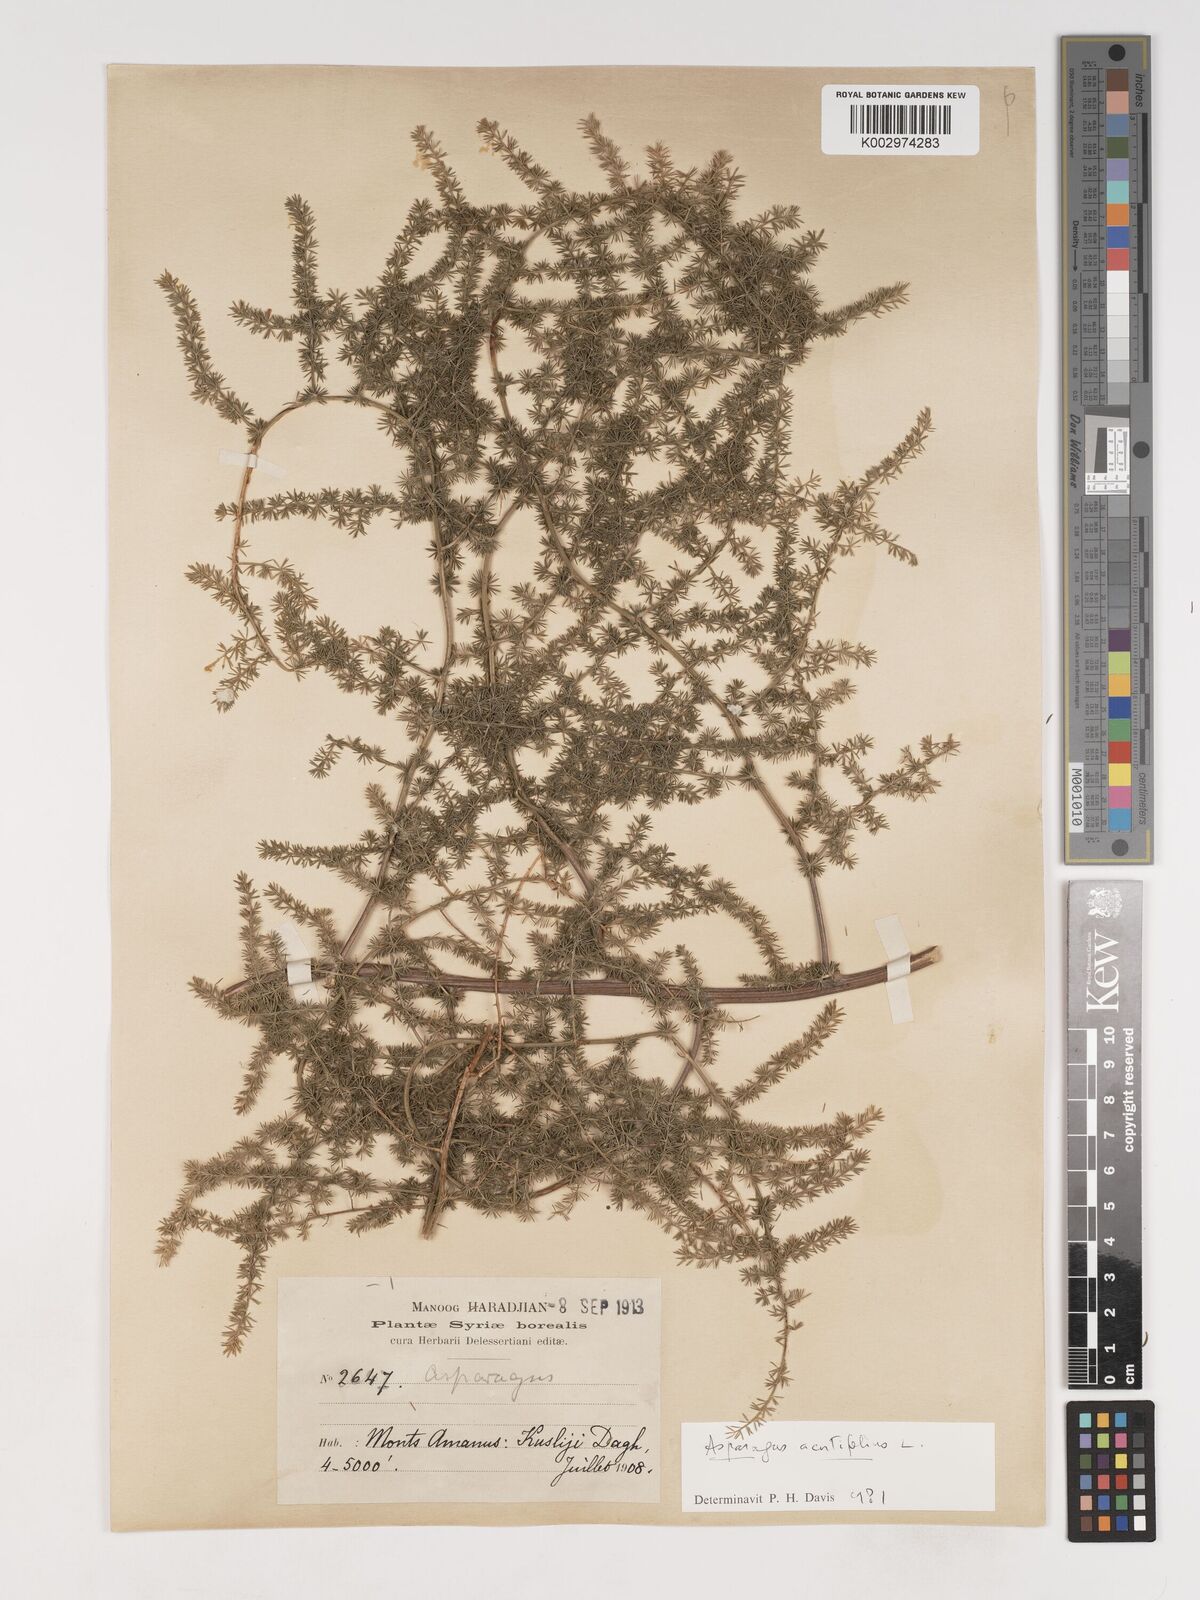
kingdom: Plantae
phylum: Tracheophyta
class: Liliopsida
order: Asparagales
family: Asparagaceae
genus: Asparagus
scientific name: Asparagus acutifolius
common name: Wild asparagus
